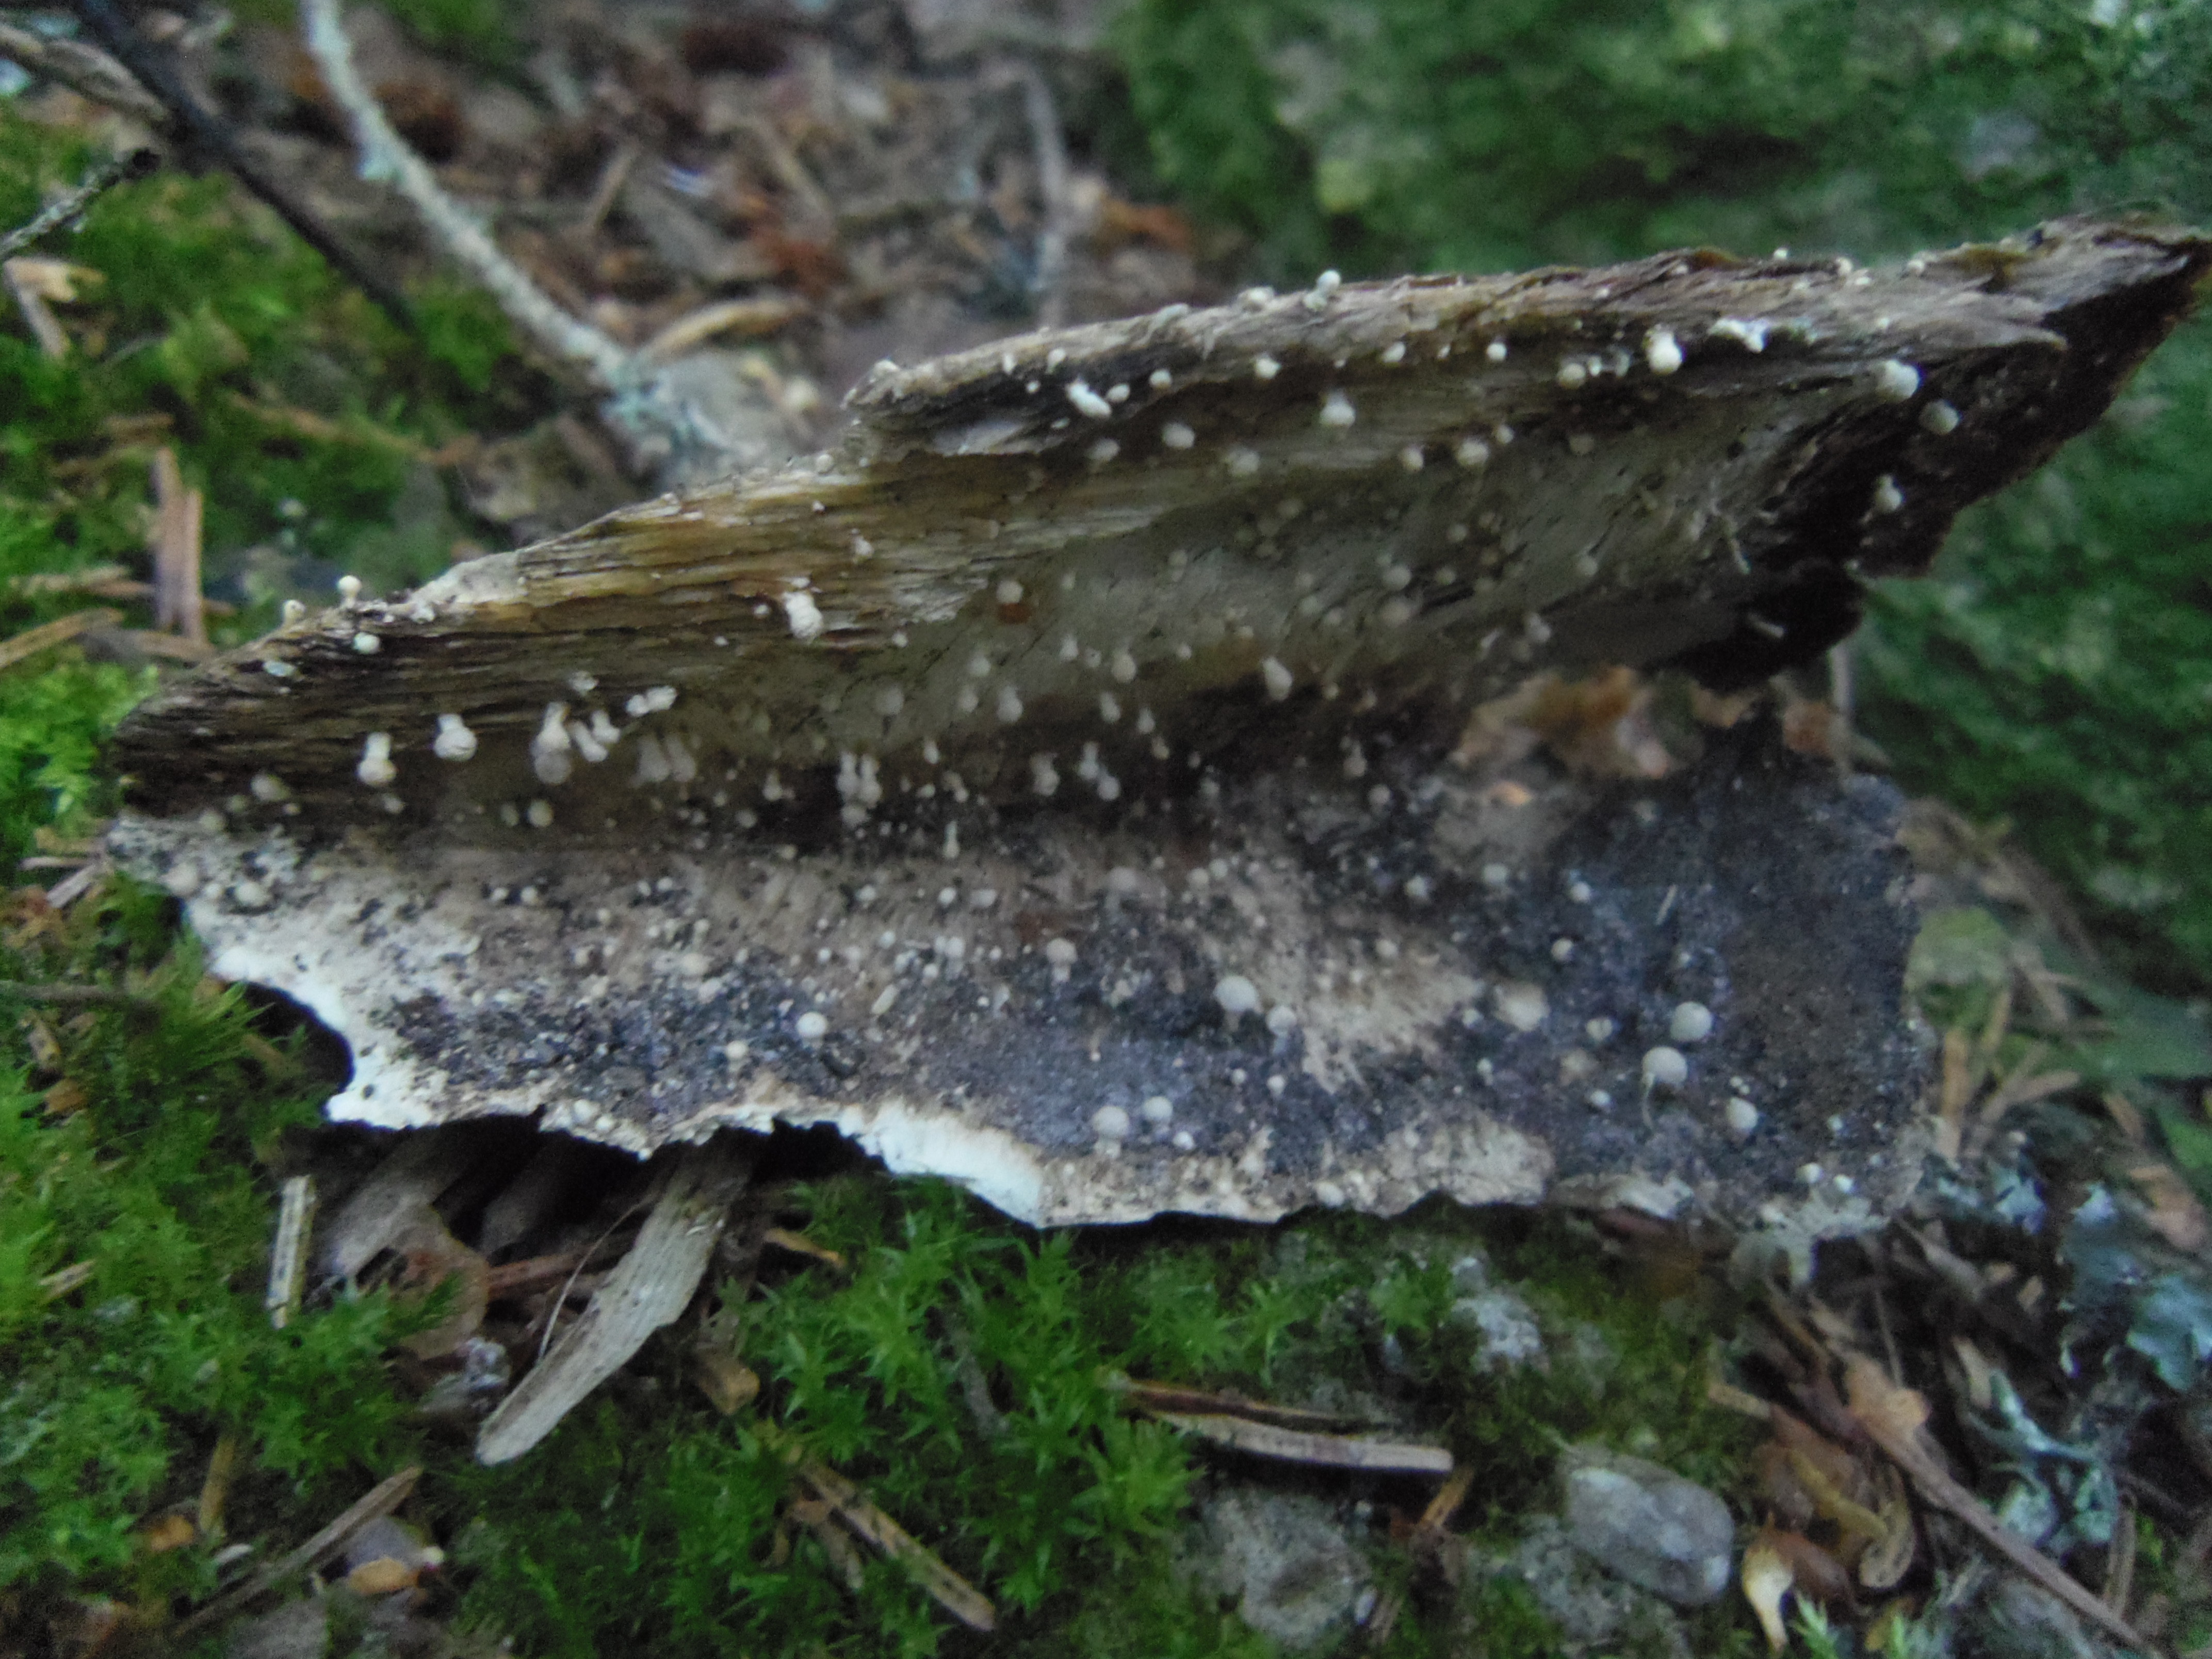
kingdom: Fungi
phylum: Ascomycota
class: Eurotiomycetes
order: Onygenales
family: Onygenaceae
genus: Onygena
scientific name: Onygena equina
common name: Horn stalkball
